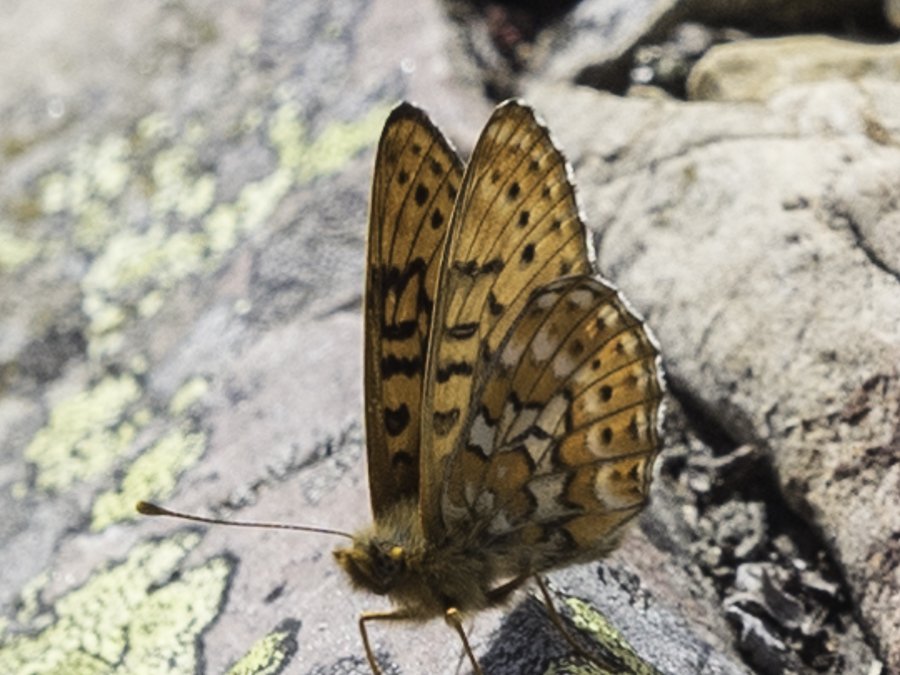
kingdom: Animalia
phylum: Arthropoda
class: Insecta
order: Lepidoptera
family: Nymphalidae
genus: Clossiana
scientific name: Clossiana astarte
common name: Astarte Fritillary
